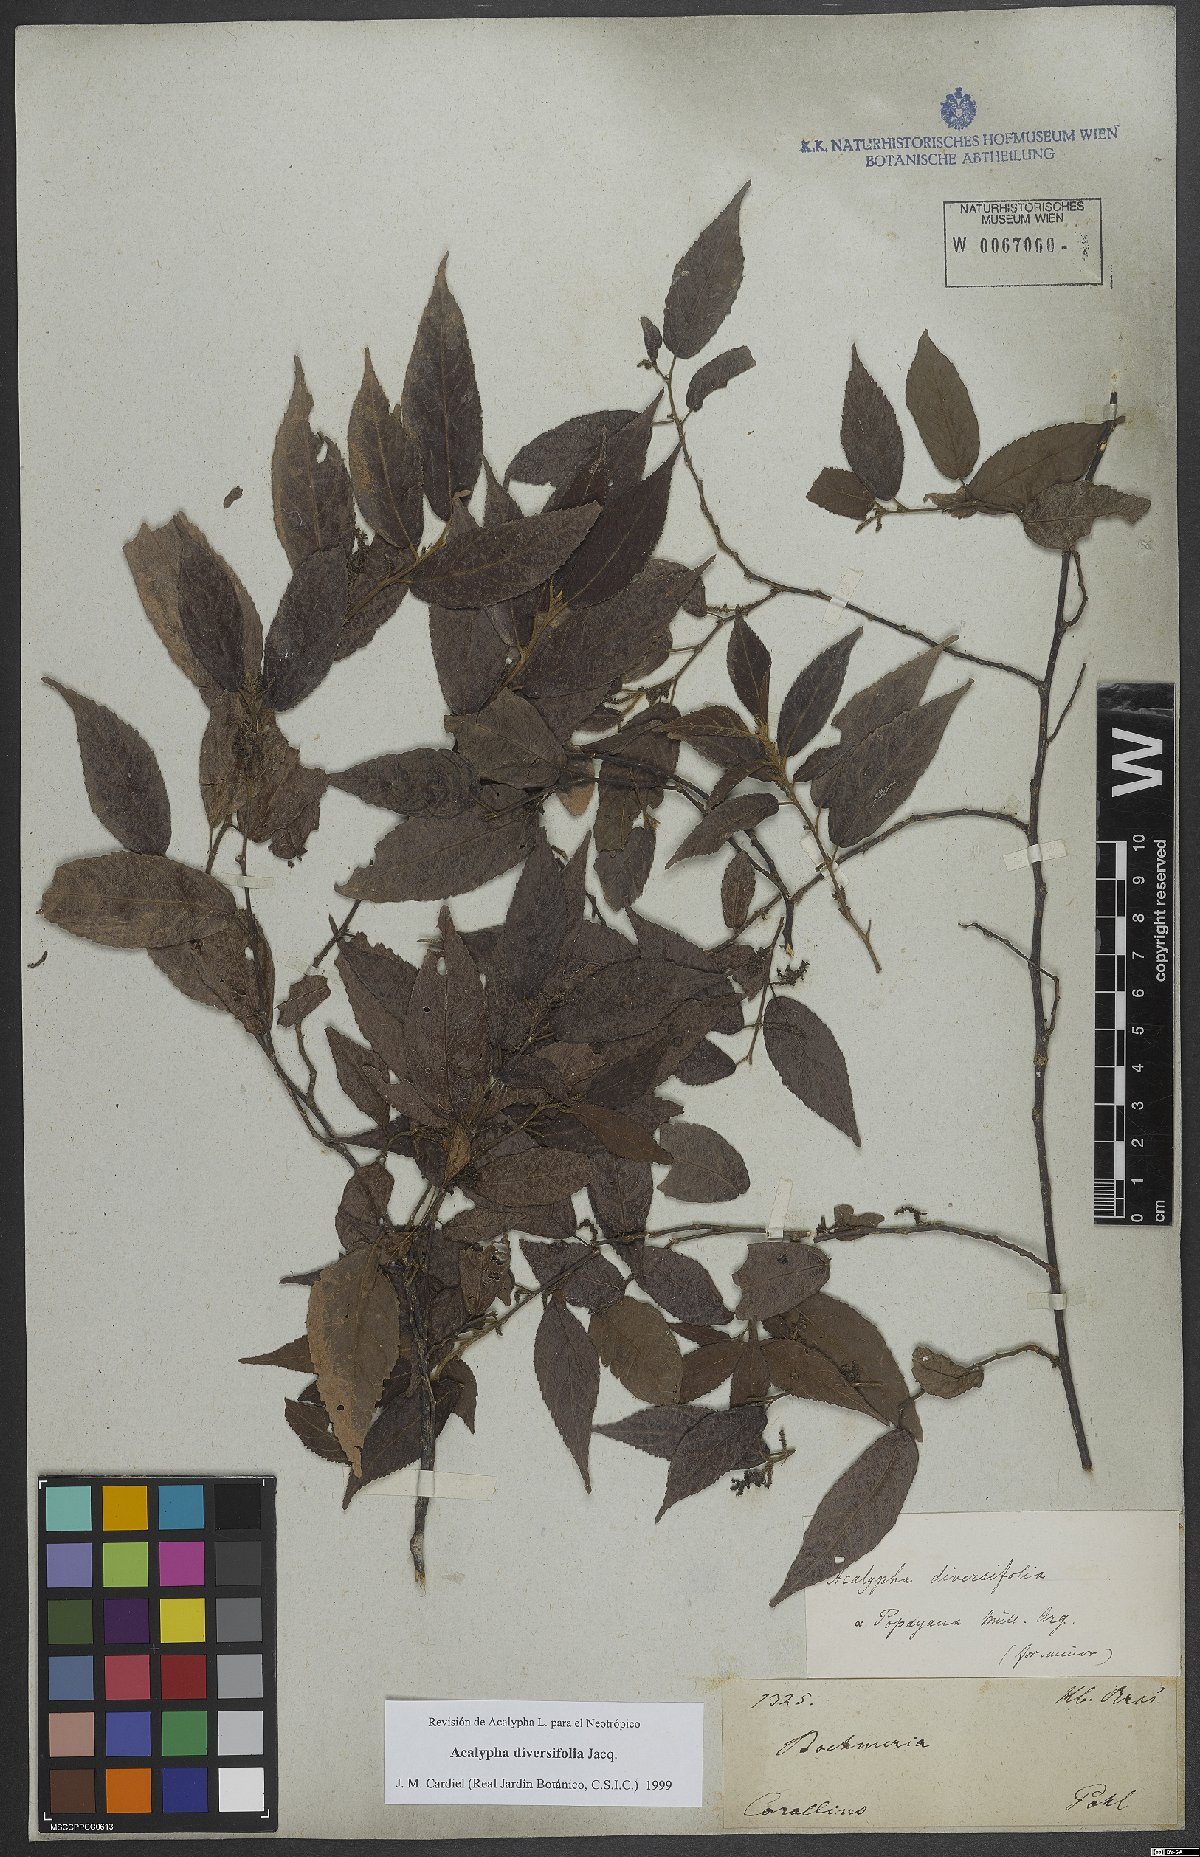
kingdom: Plantae
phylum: Tracheophyta
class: Magnoliopsida
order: Malpighiales
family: Euphorbiaceae
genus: Acalypha
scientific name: Acalypha diversifolia
